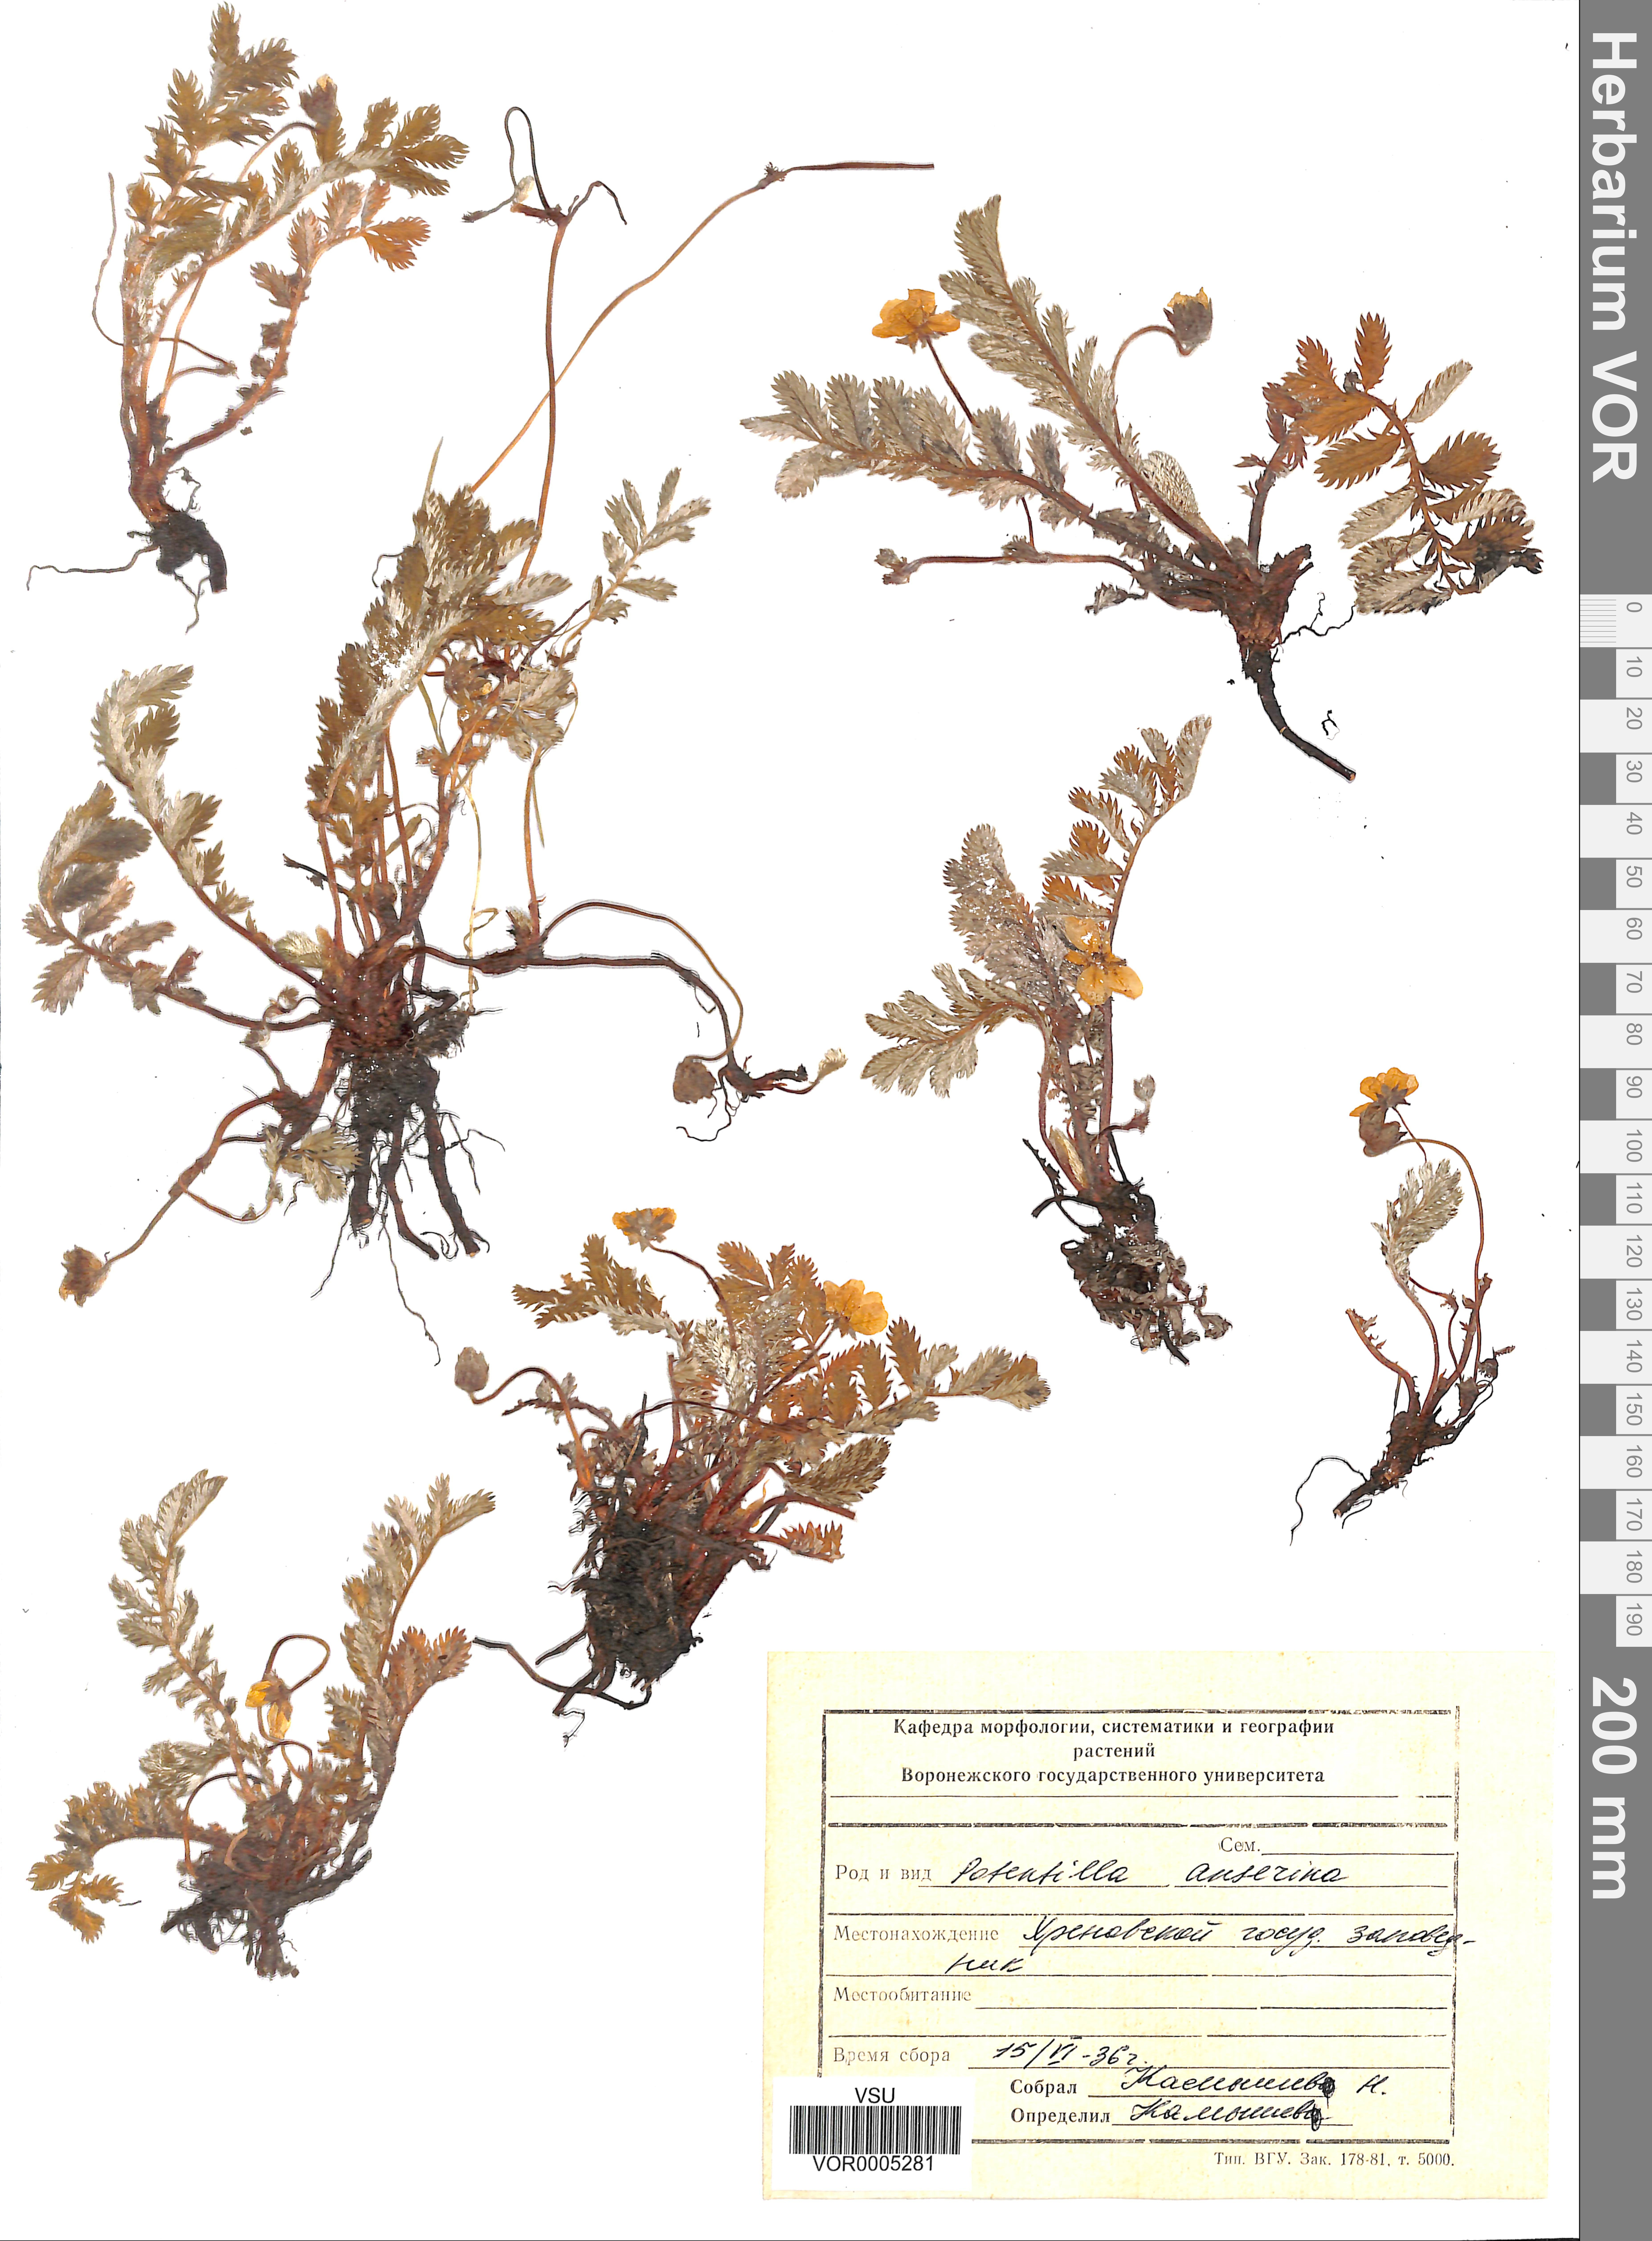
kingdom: Plantae
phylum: Tracheophyta
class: Magnoliopsida
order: Rosales
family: Rosaceae
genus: Argentina
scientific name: Argentina anserina
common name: Common silverweed
